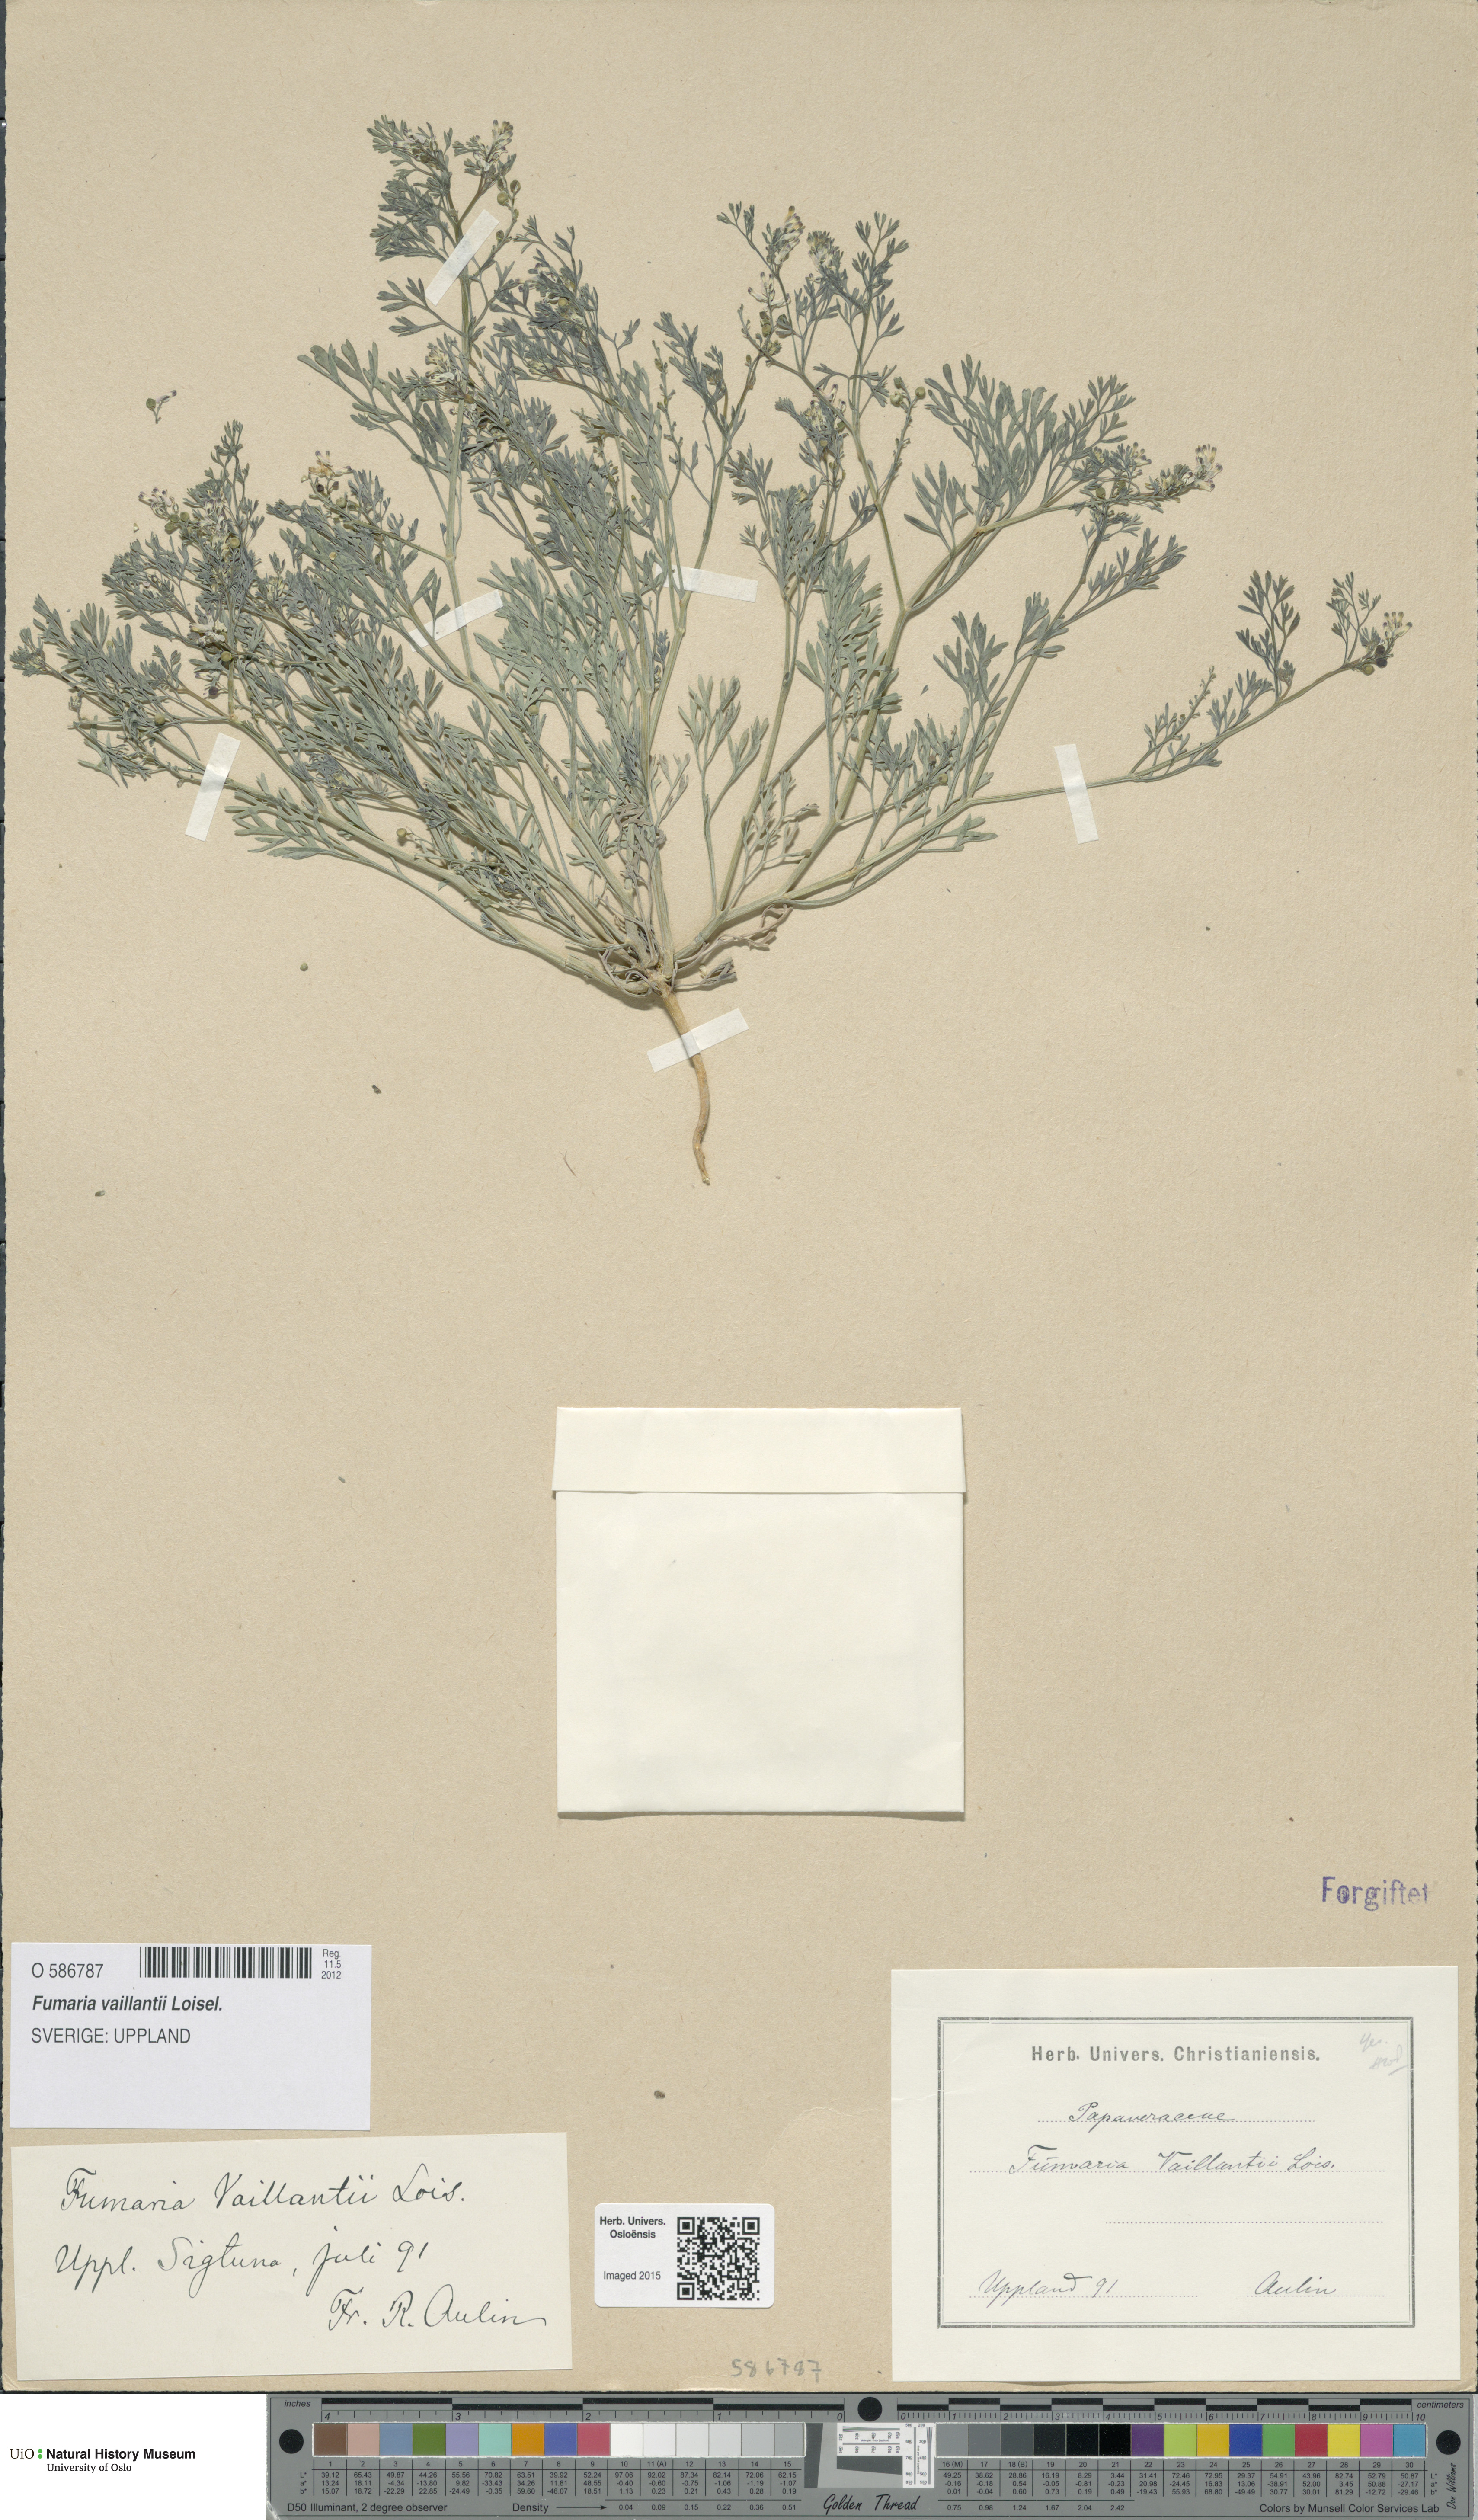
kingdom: Plantae
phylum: Tracheophyta
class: Magnoliopsida
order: Ranunculales
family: Papaveraceae
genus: Fumaria
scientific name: Fumaria vaillantii
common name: Few-flowered fumitory
